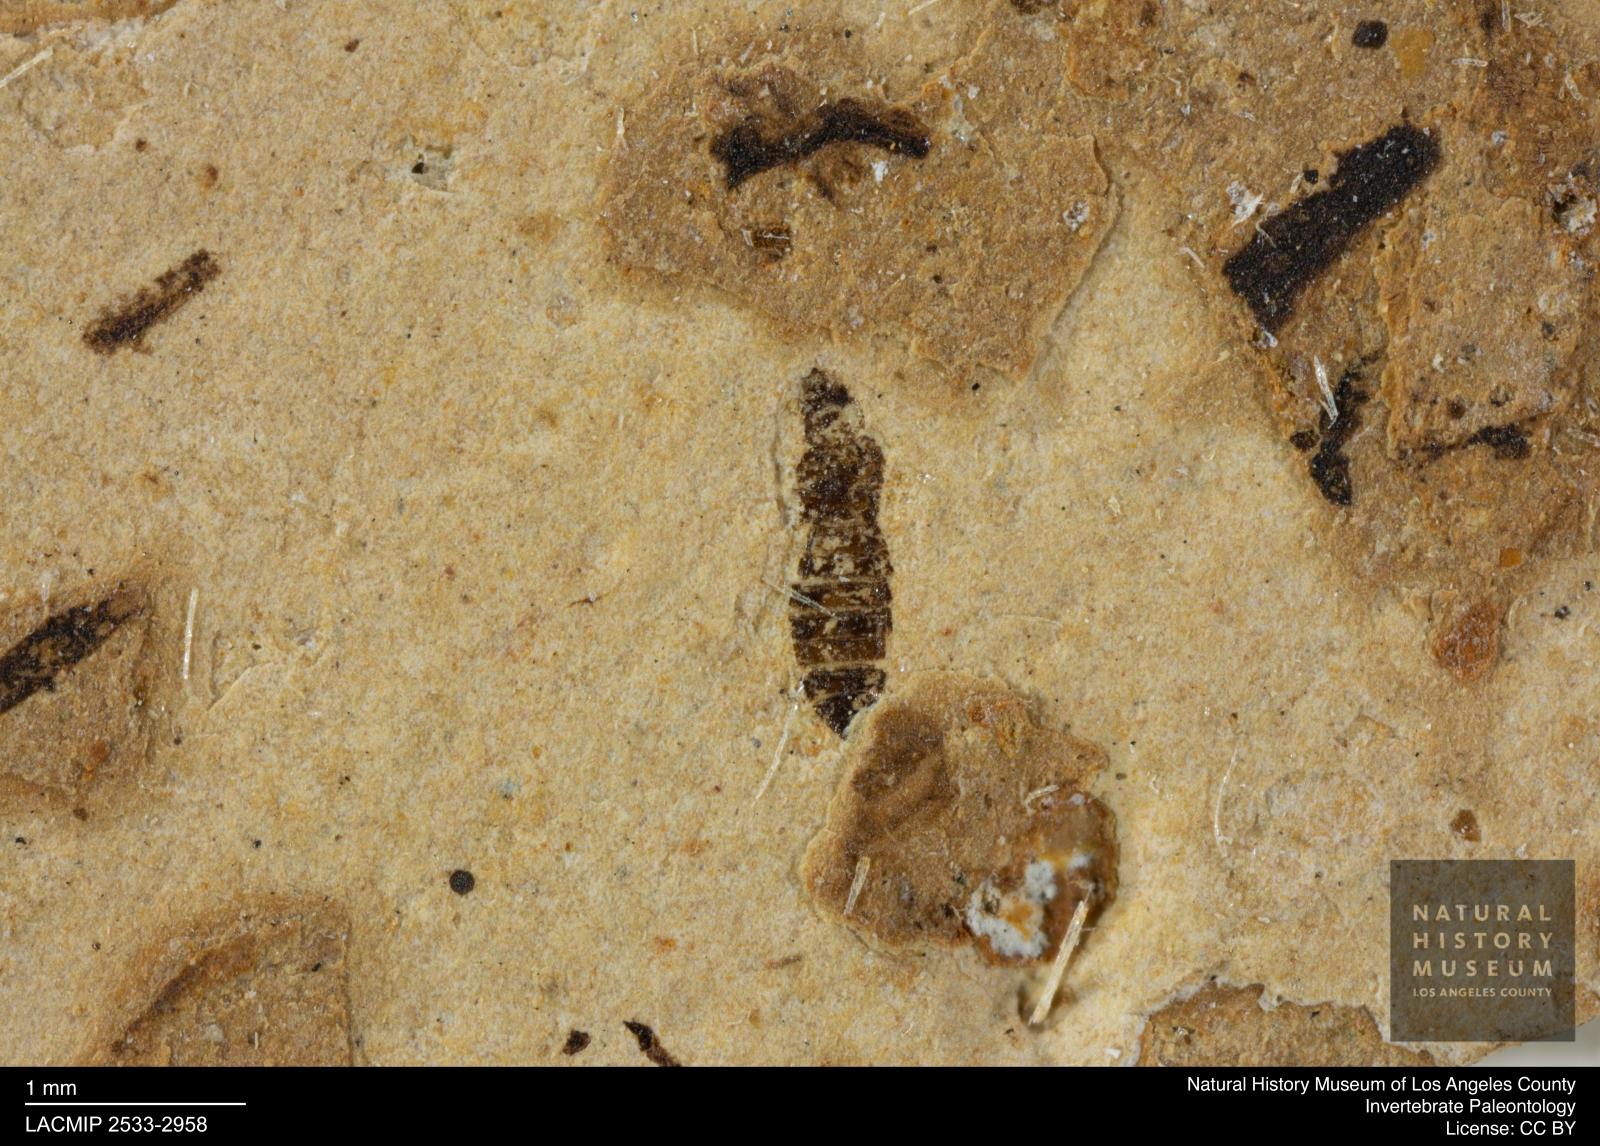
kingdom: Animalia
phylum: Arthropoda
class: Insecta
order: Thysanoptera
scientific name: Thysanoptera
